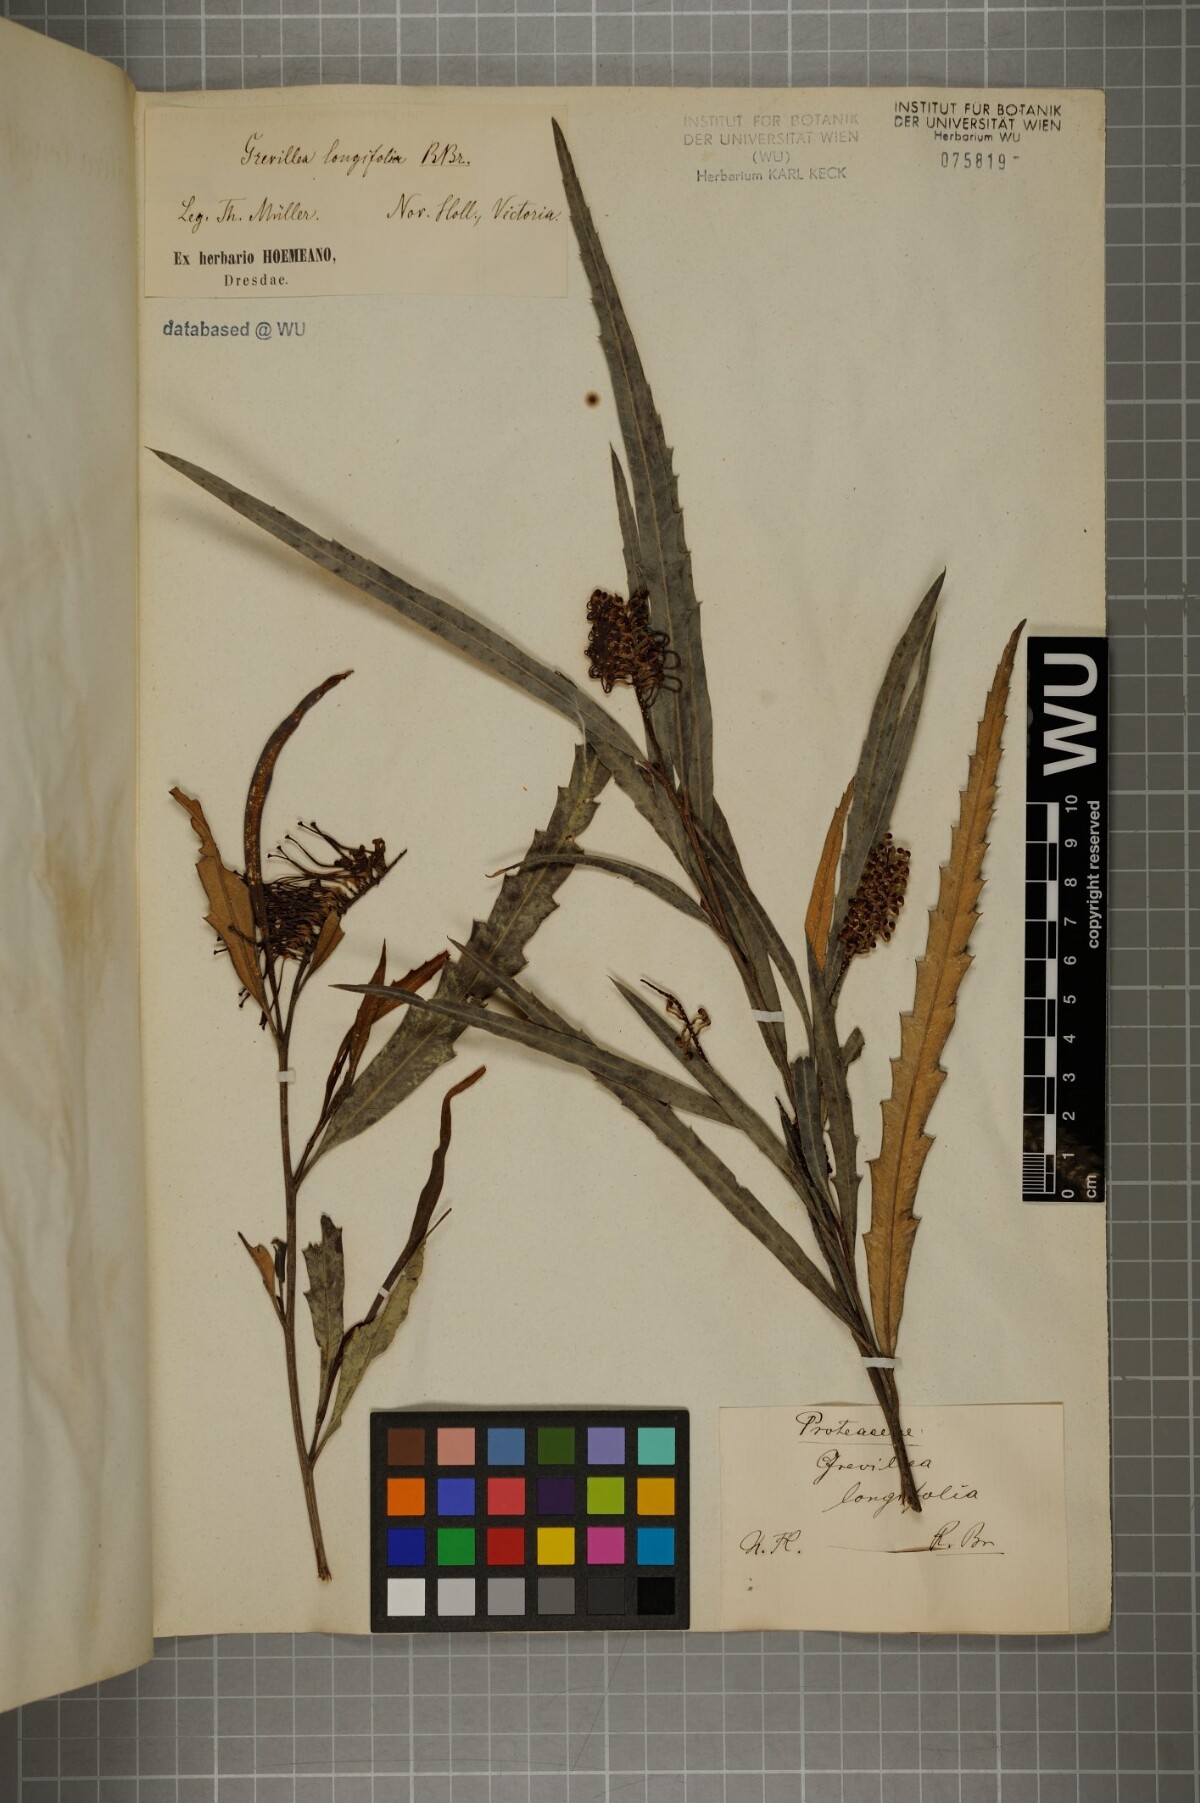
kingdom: Plantae
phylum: Tracheophyta
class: Magnoliopsida
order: Proteales
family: Proteaceae
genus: Grevillea
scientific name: Grevillea longifolia
